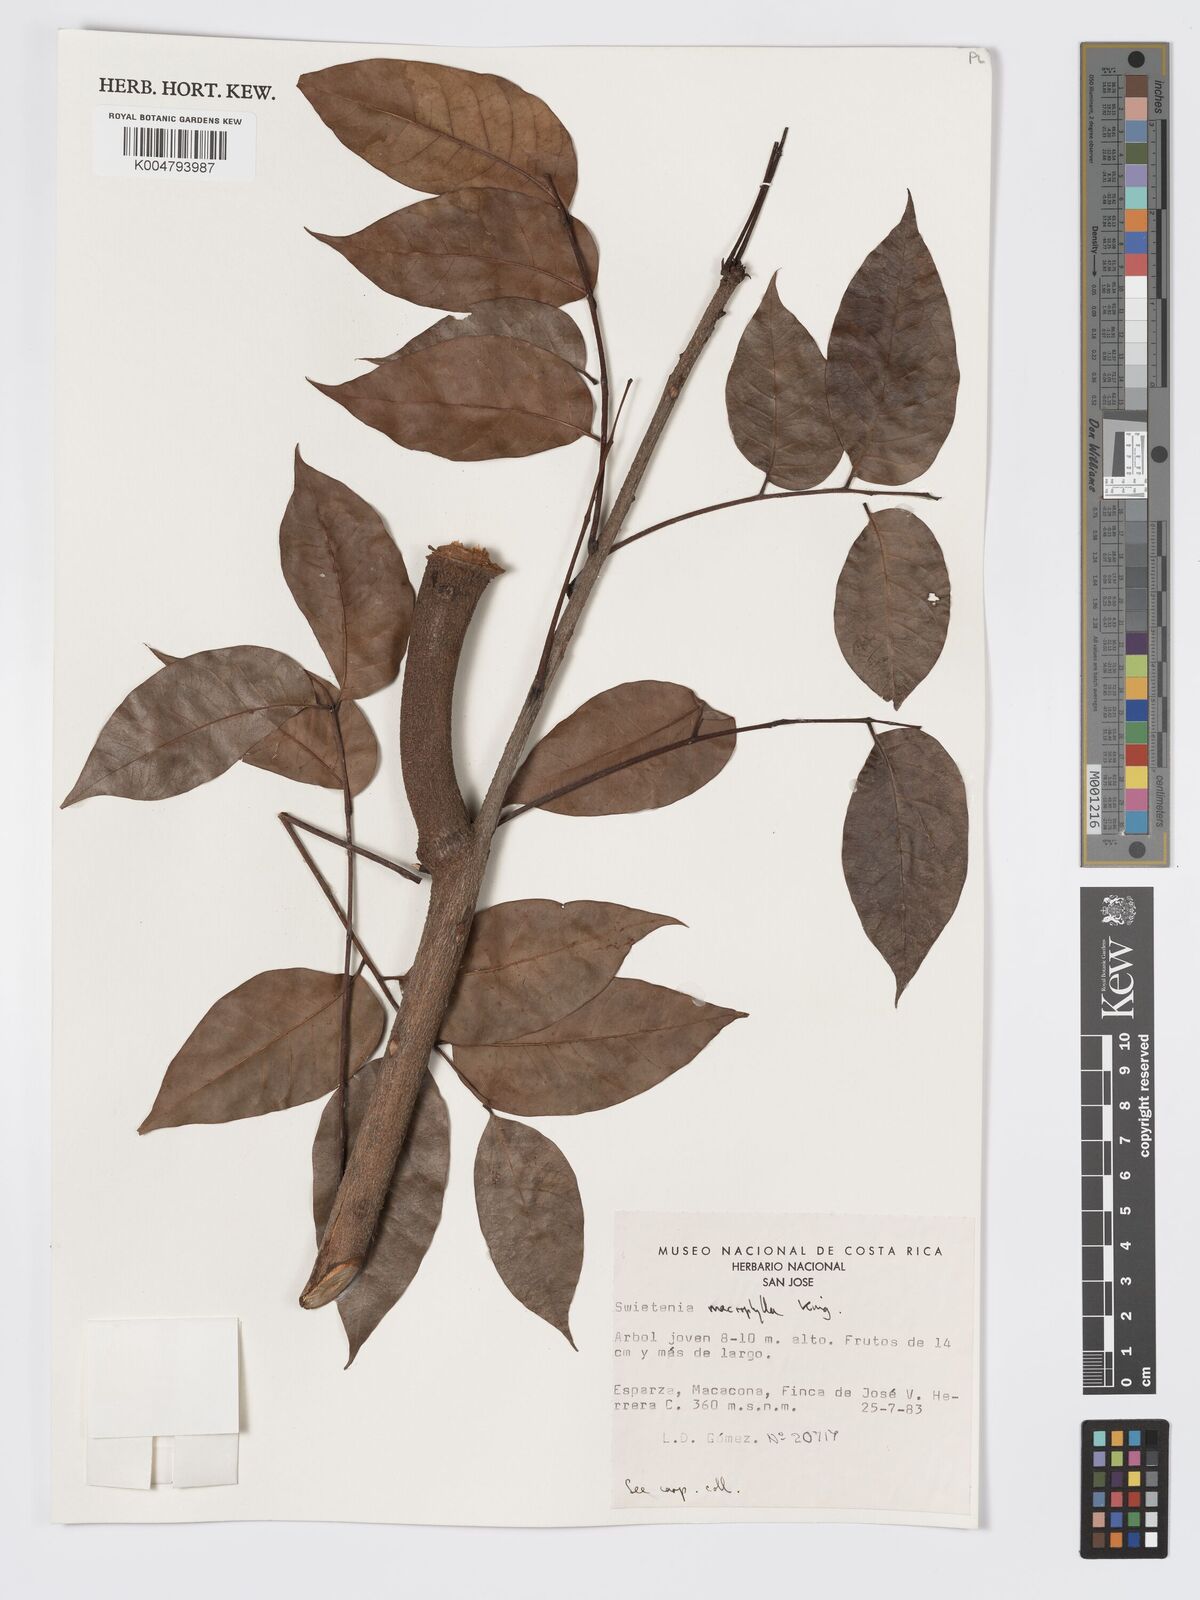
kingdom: Plantae
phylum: Tracheophyta
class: Magnoliopsida
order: Sapindales
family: Meliaceae
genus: Swietenia
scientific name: Swietenia macrophylla
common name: Honduras mahogany
